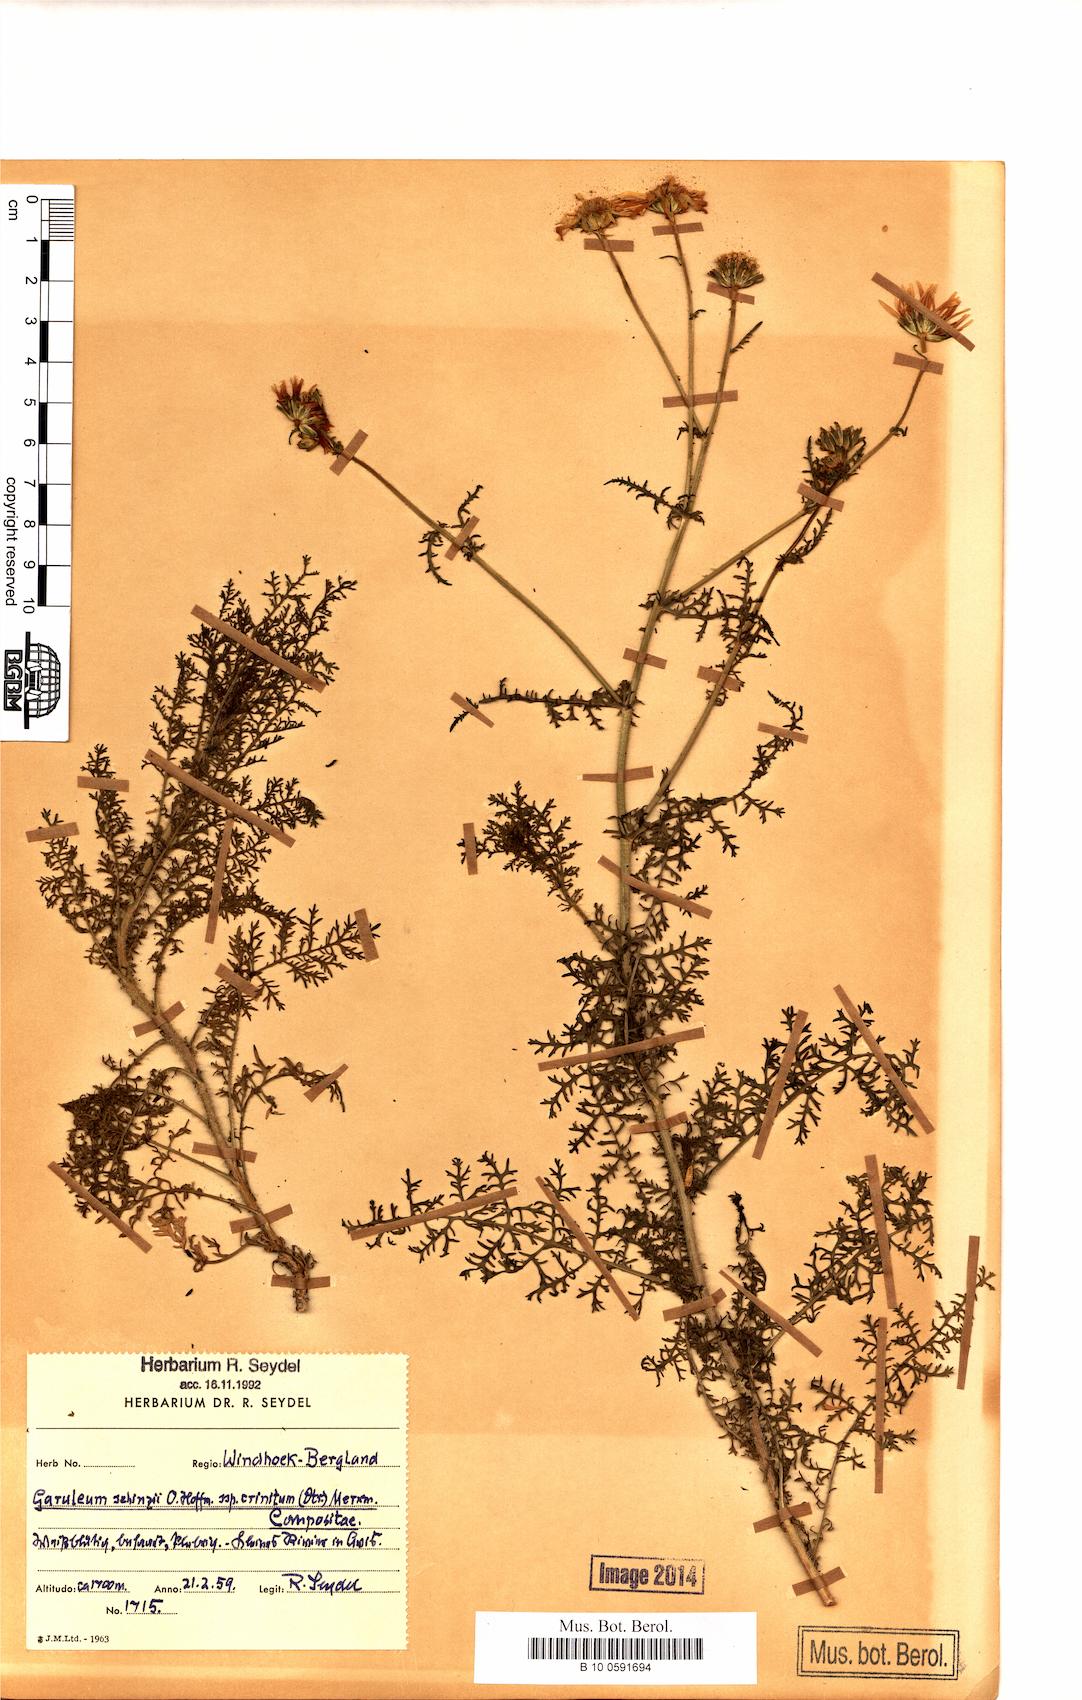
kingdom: Plantae
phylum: Tracheophyta
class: Magnoliopsida
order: Asterales
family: Asteraceae
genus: Garuleum
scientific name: Garuleum schinzii
